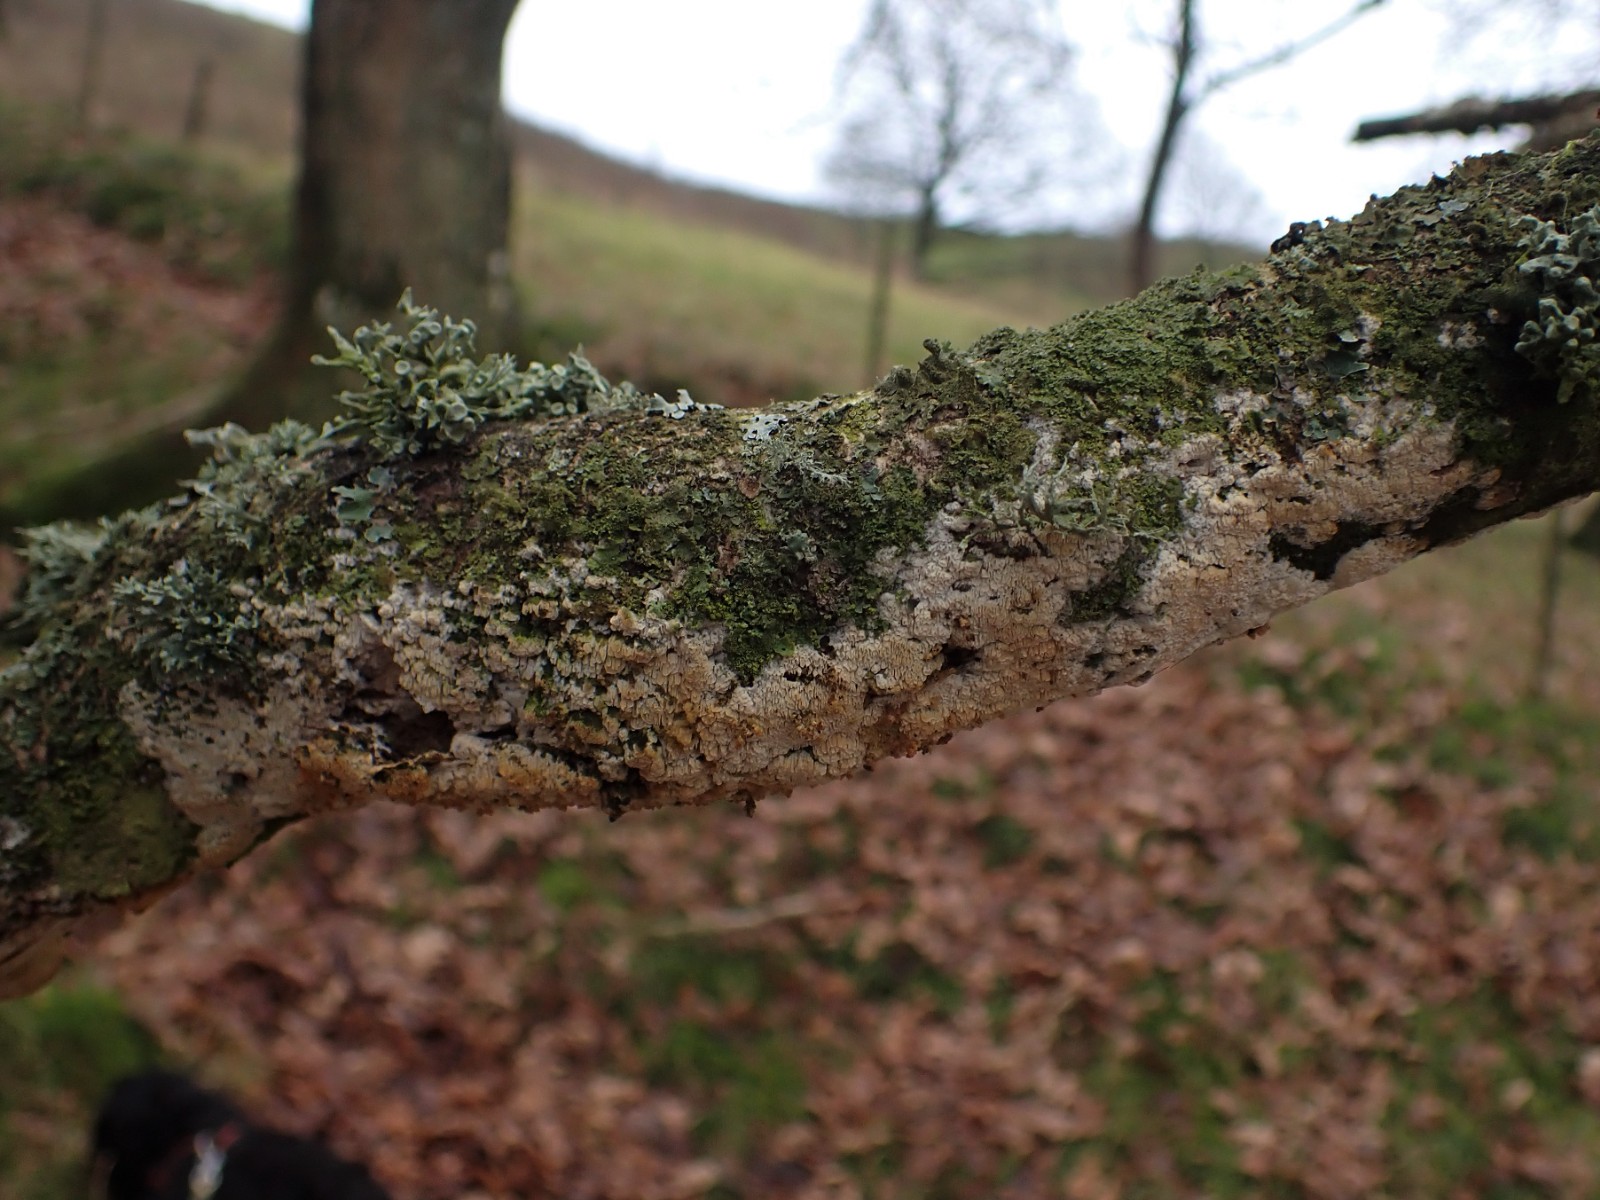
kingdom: Fungi
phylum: Basidiomycota
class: Agaricomycetes
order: Hymenochaetales
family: Schizoporaceae
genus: Xylodon
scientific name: Xylodon subtropicus
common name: labyrint-tandsvamp
